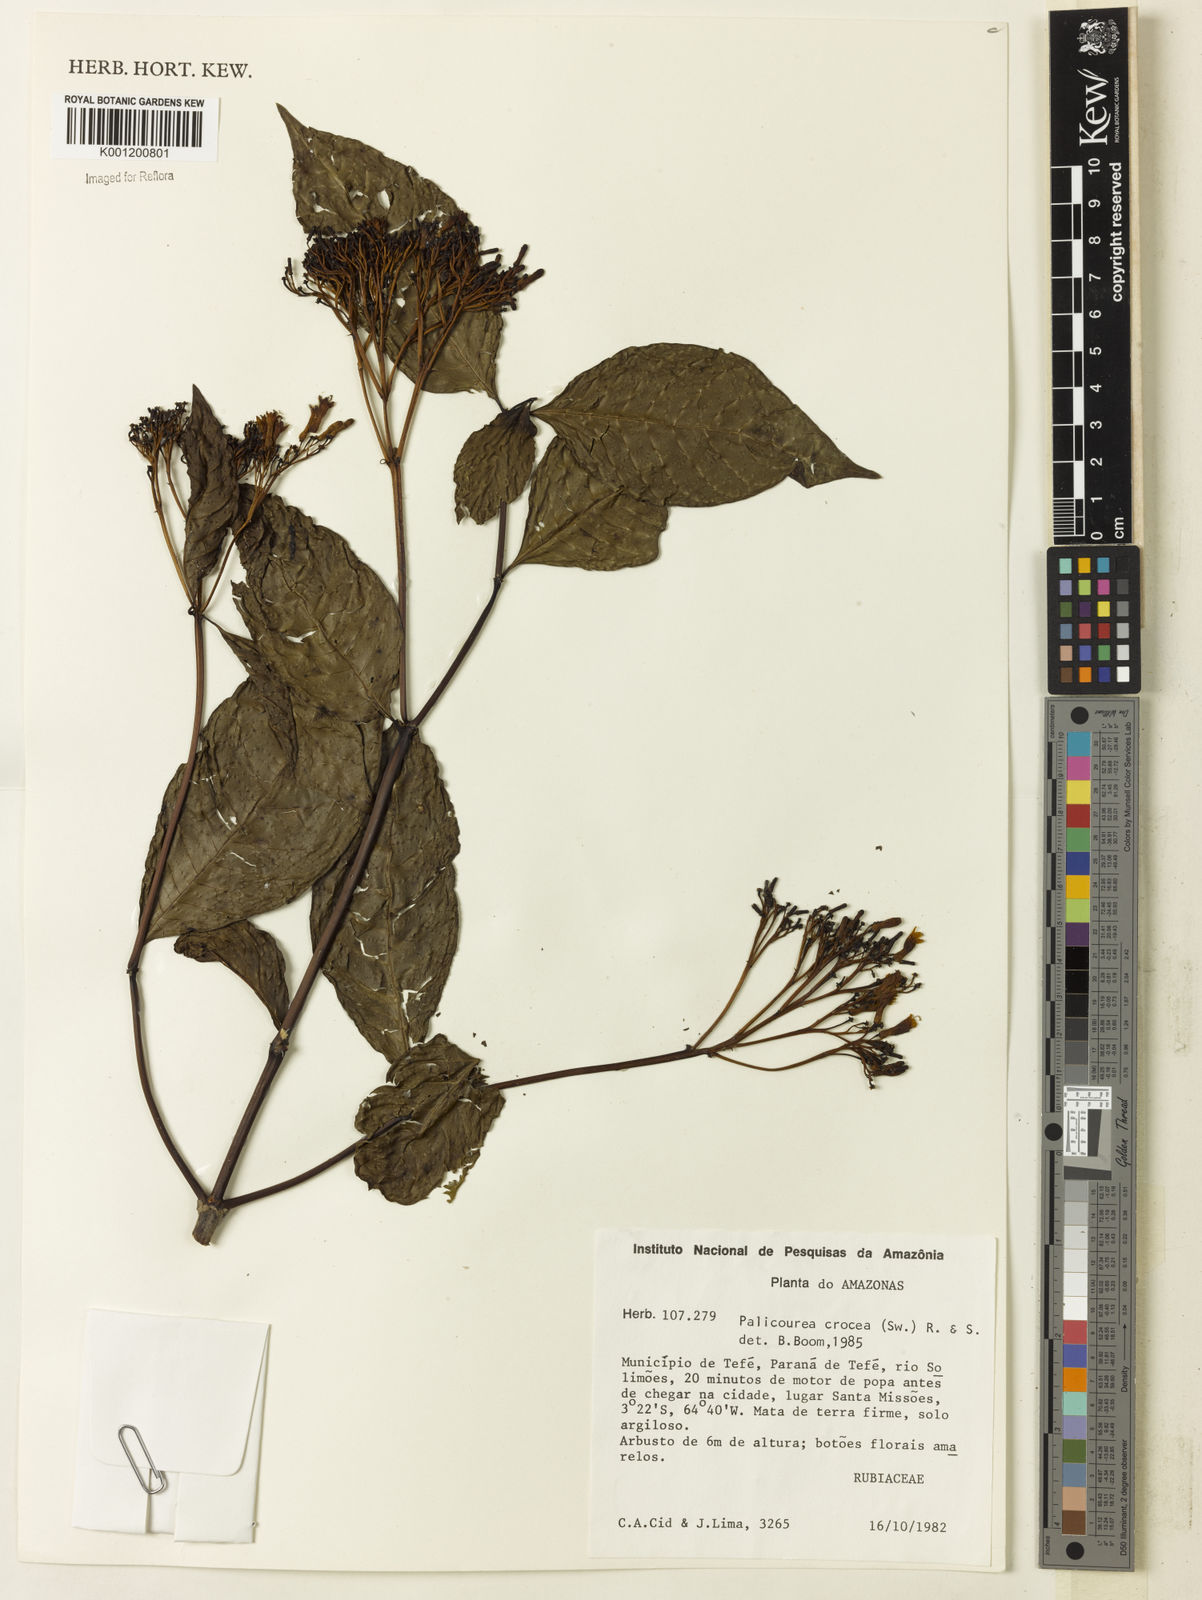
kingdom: Plantae
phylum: Tracheophyta
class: Magnoliopsida
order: Gentianales
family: Rubiaceae
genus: Palicourea
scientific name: Palicourea crocea
